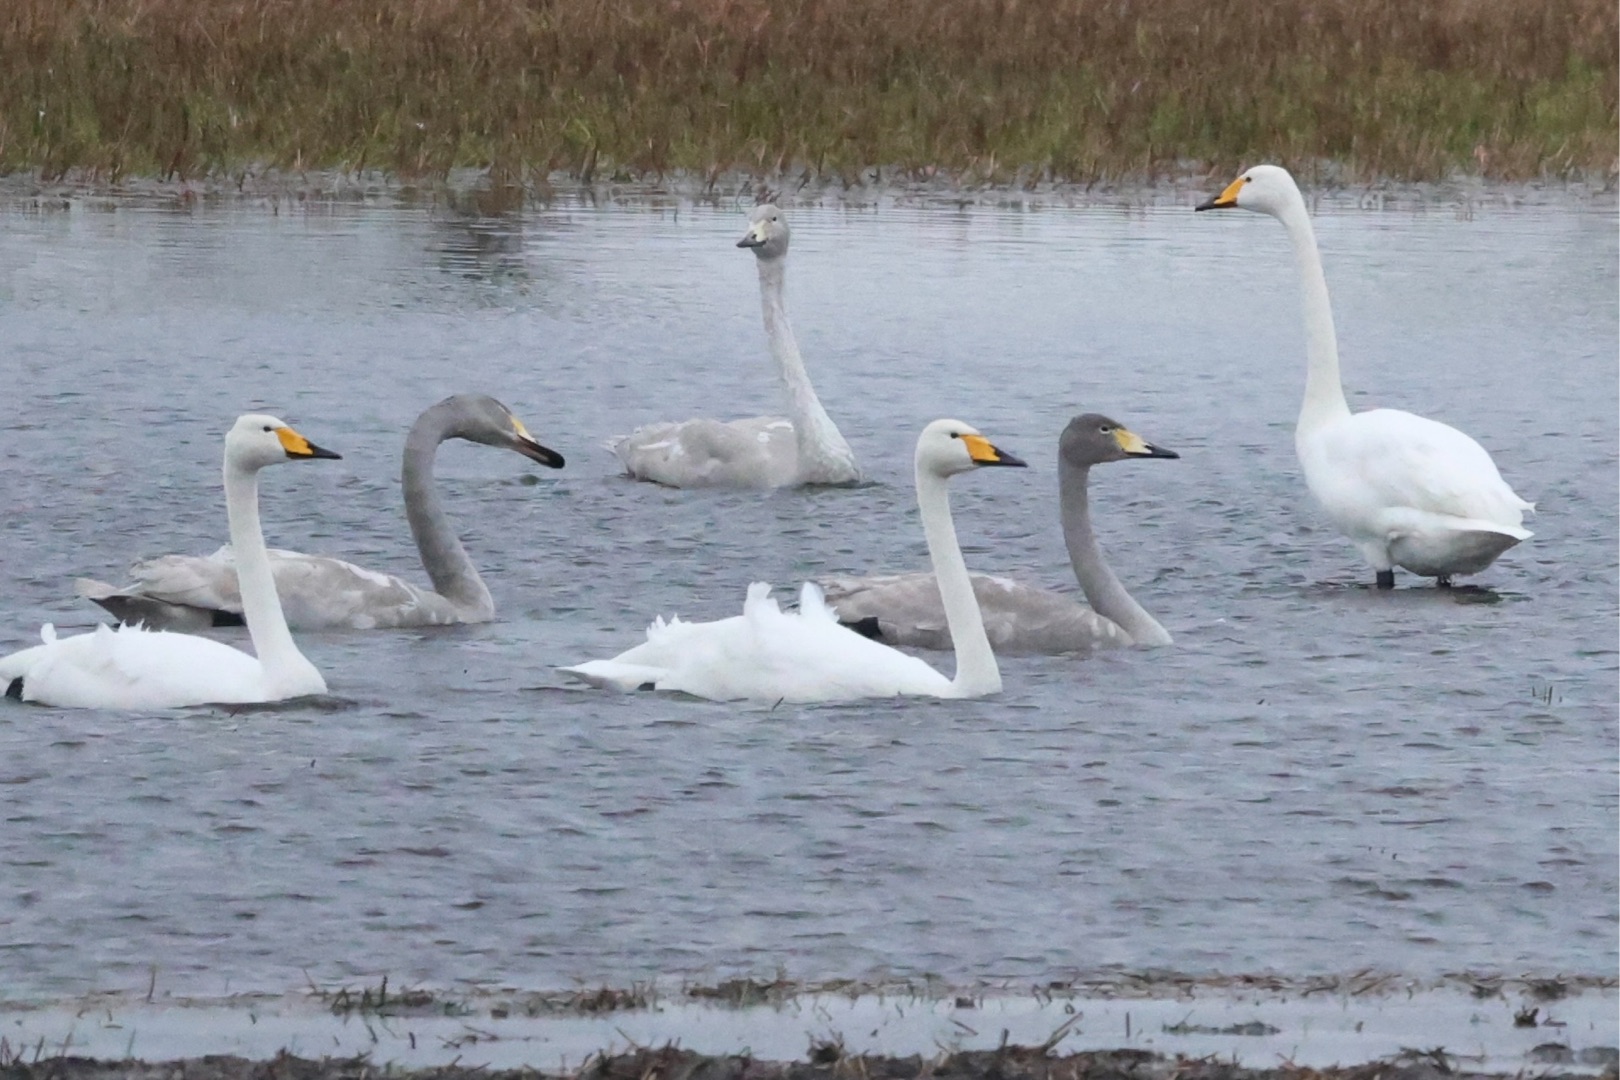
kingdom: Animalia
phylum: Chordata
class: Aves
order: Anseriformes
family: Anatidae
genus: Cygnus
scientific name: Cygnus cygnus
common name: Sangsvane
